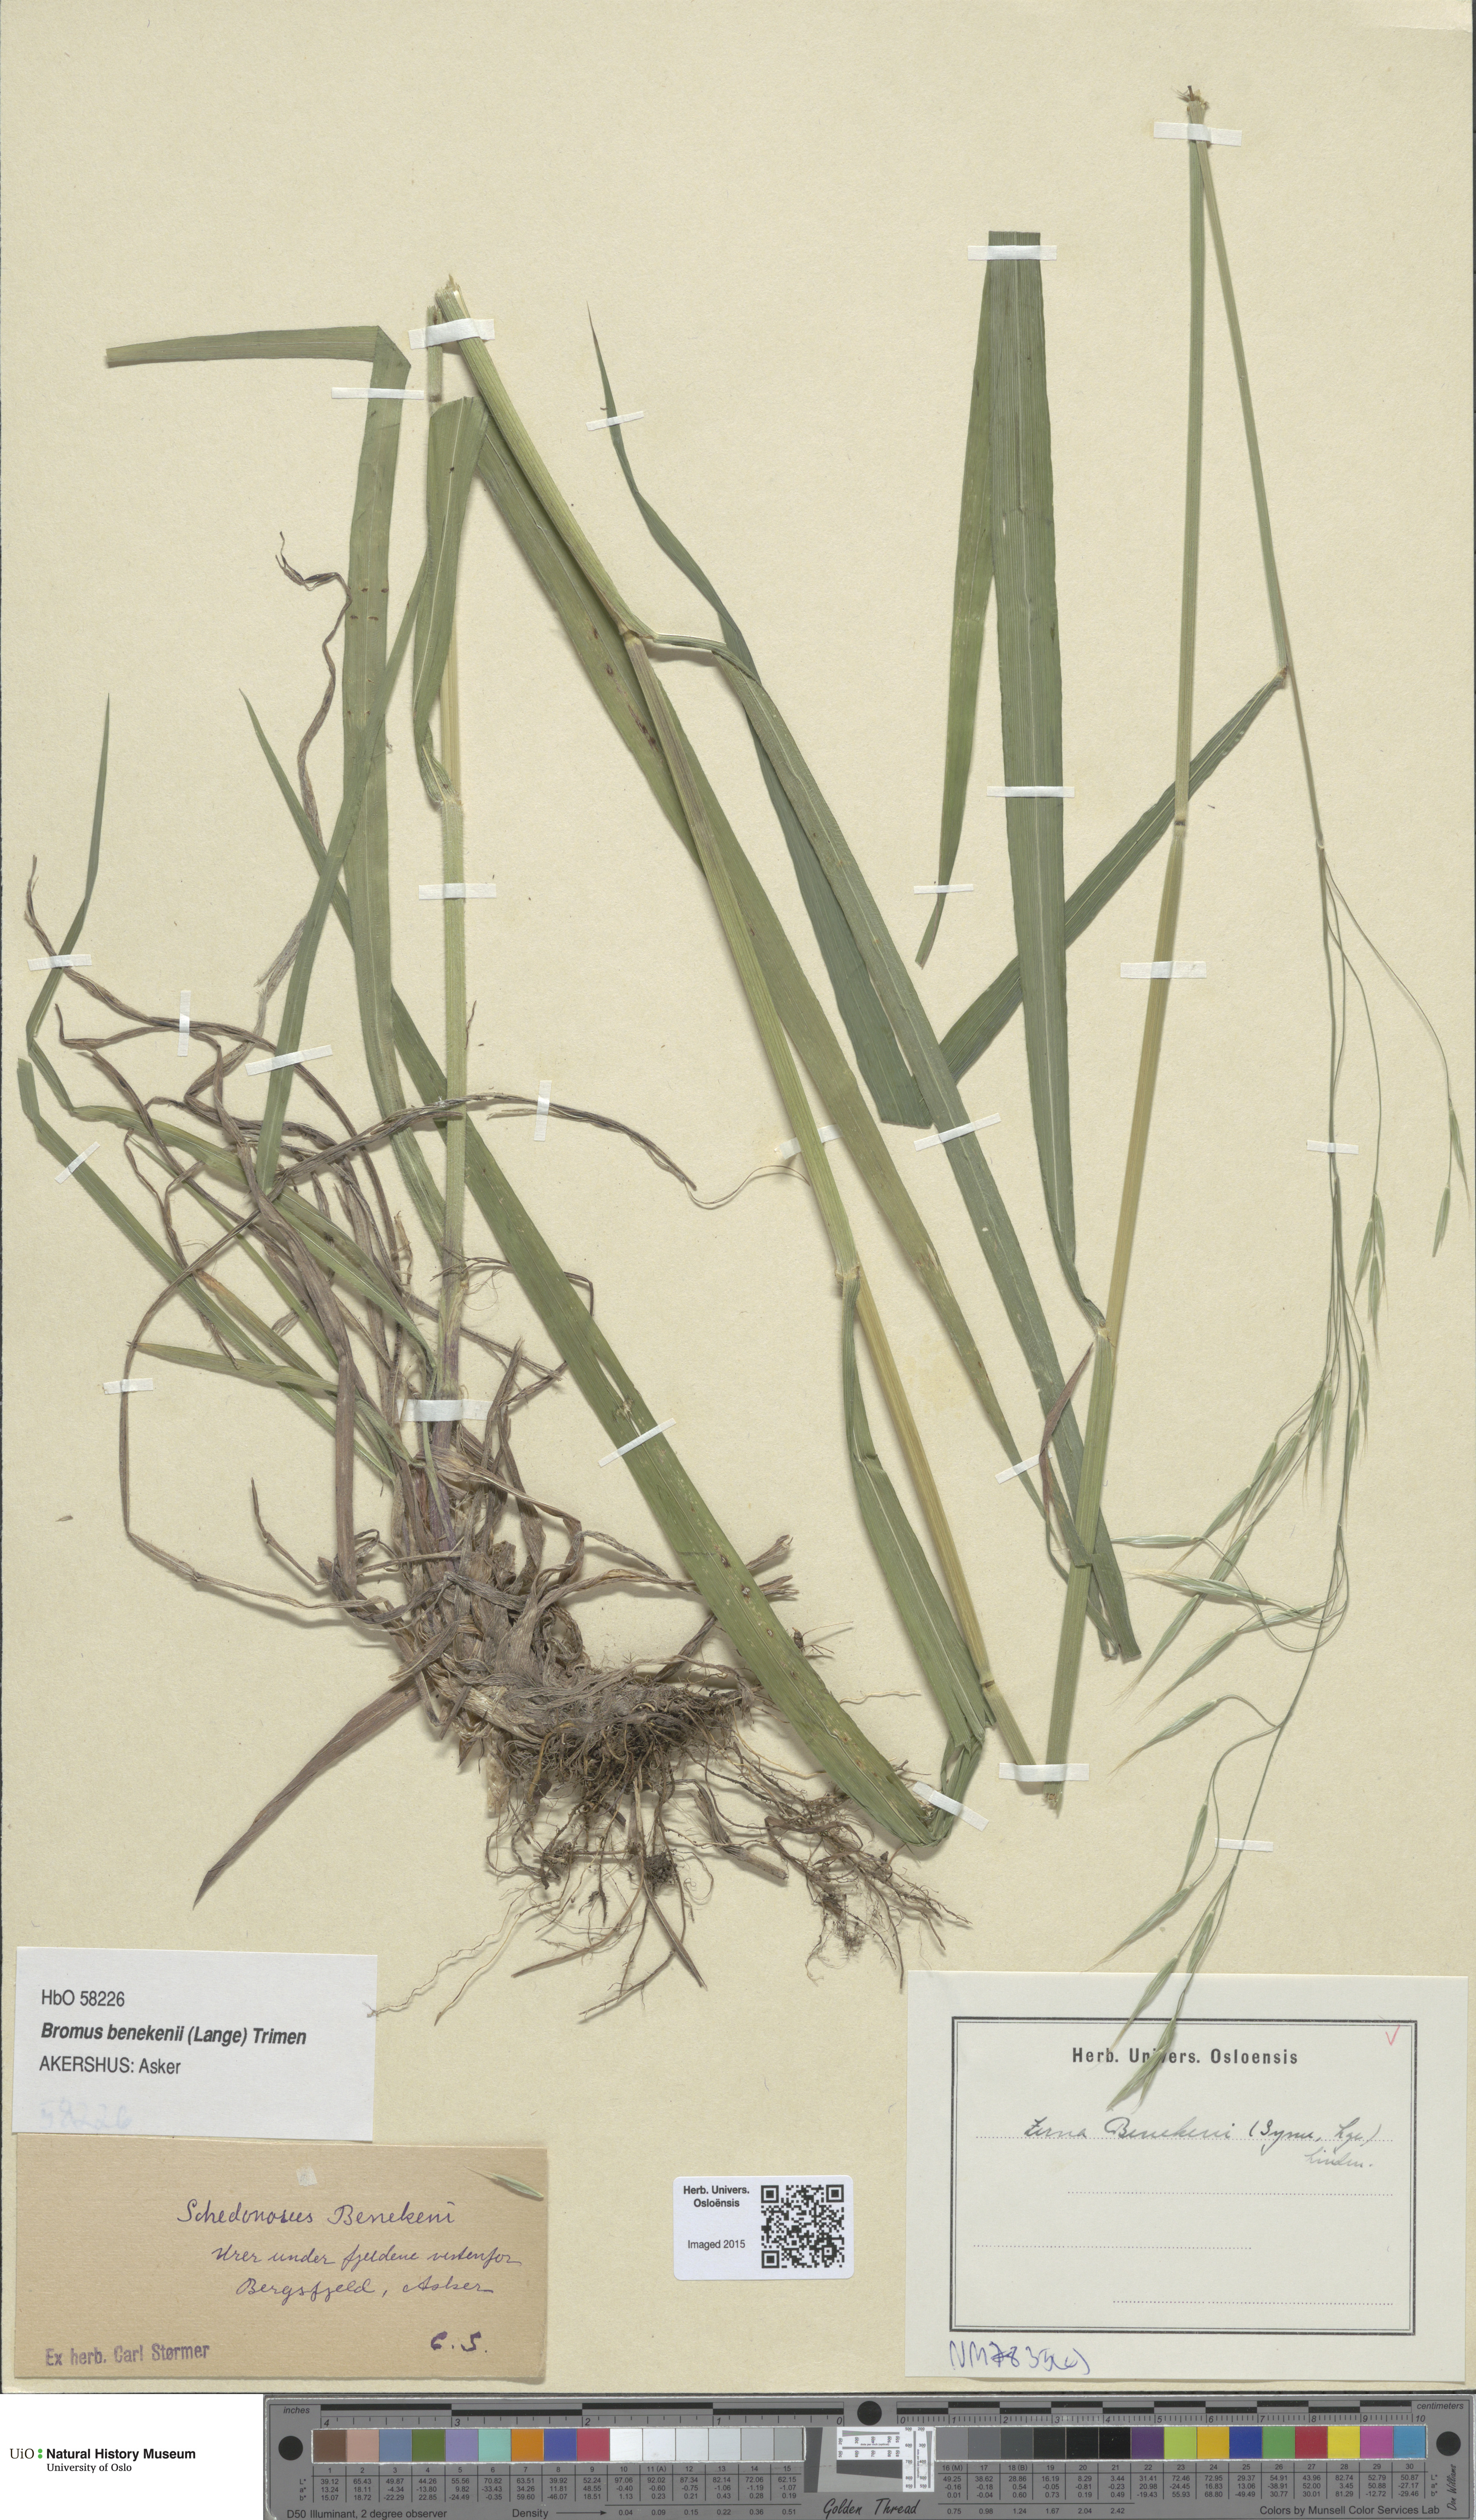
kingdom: Plantae
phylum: Tracheophyta
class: Liliopsida
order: Poales
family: Poaceae
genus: Bromus
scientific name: Bromus benekenii
